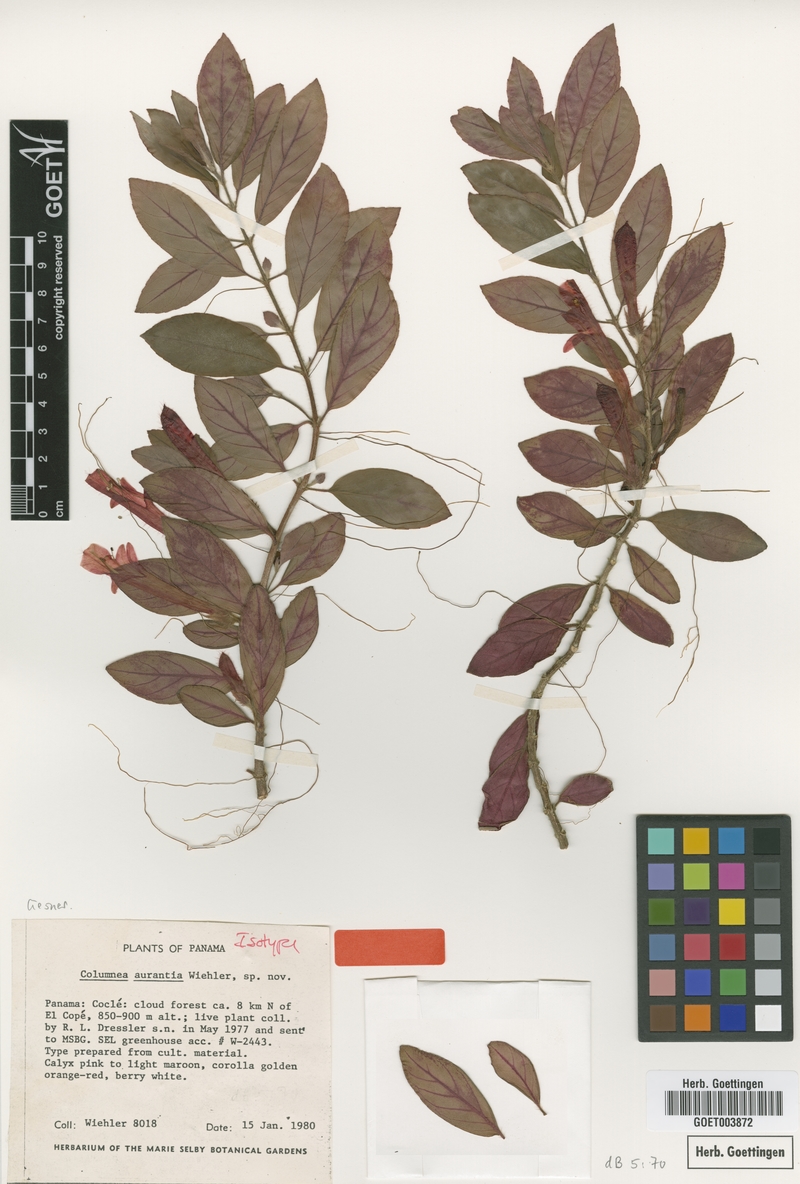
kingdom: Plantae
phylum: Tracheophyta
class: Magnoliopsida
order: Lamiales
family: Gesneriaceae
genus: Columnea
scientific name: Columnea aurantia
